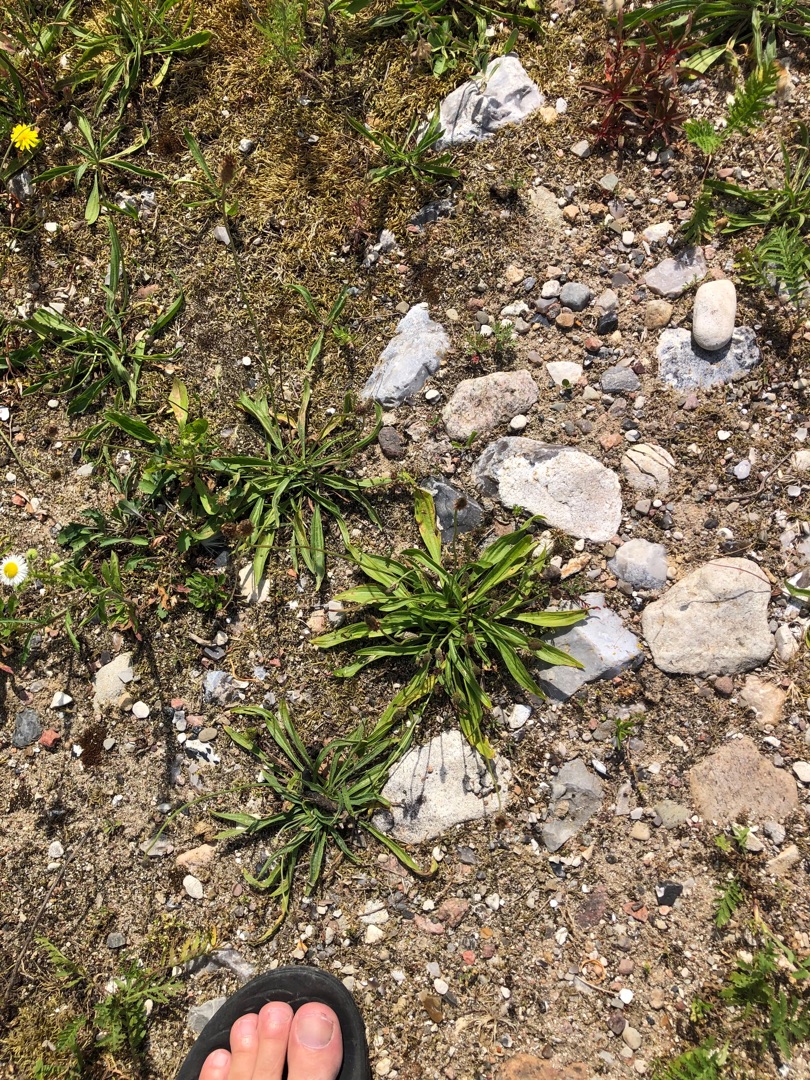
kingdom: Plantae
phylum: Tracheophyta
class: Magnoliopsida
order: Lamiales
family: Plantaginaceae
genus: Plantago
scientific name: Plantago lanceolata
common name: Lancet-vejbred
